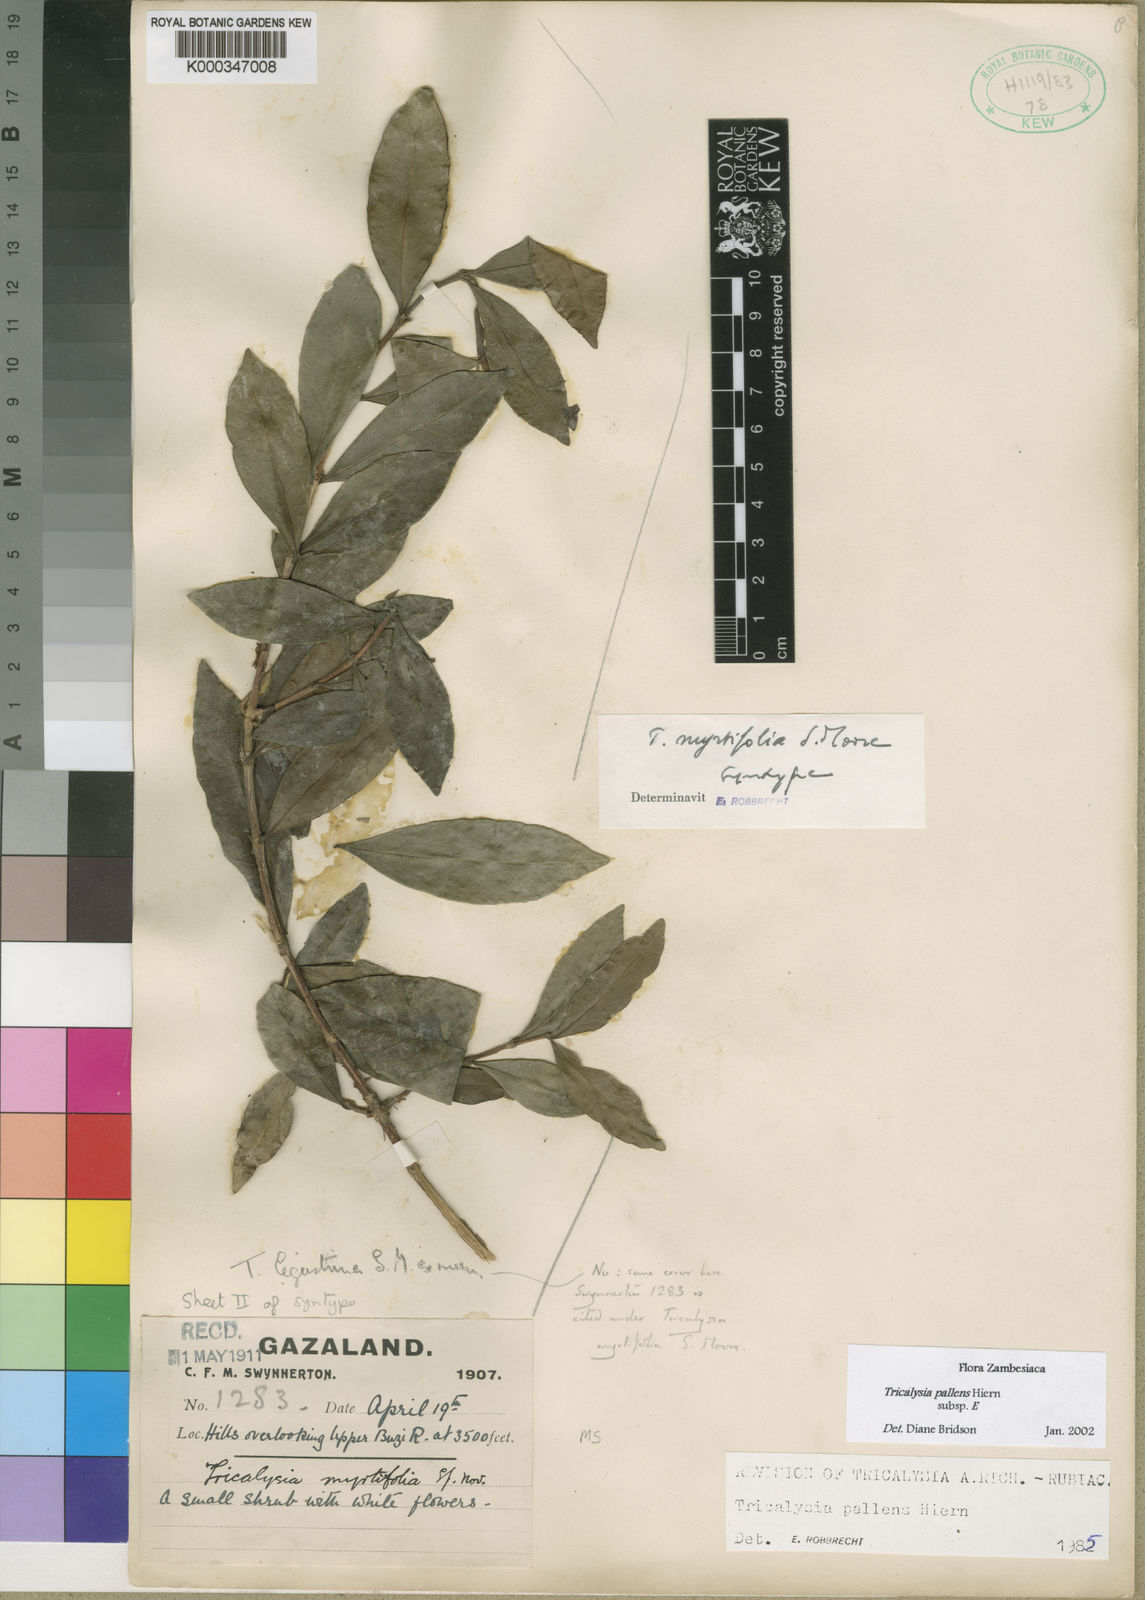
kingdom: Plantae
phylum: Tracheophyta
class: Magnoliopsida
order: Gentianales
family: Rubiaceae
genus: Tricalysia
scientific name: Tricalysia pallens
